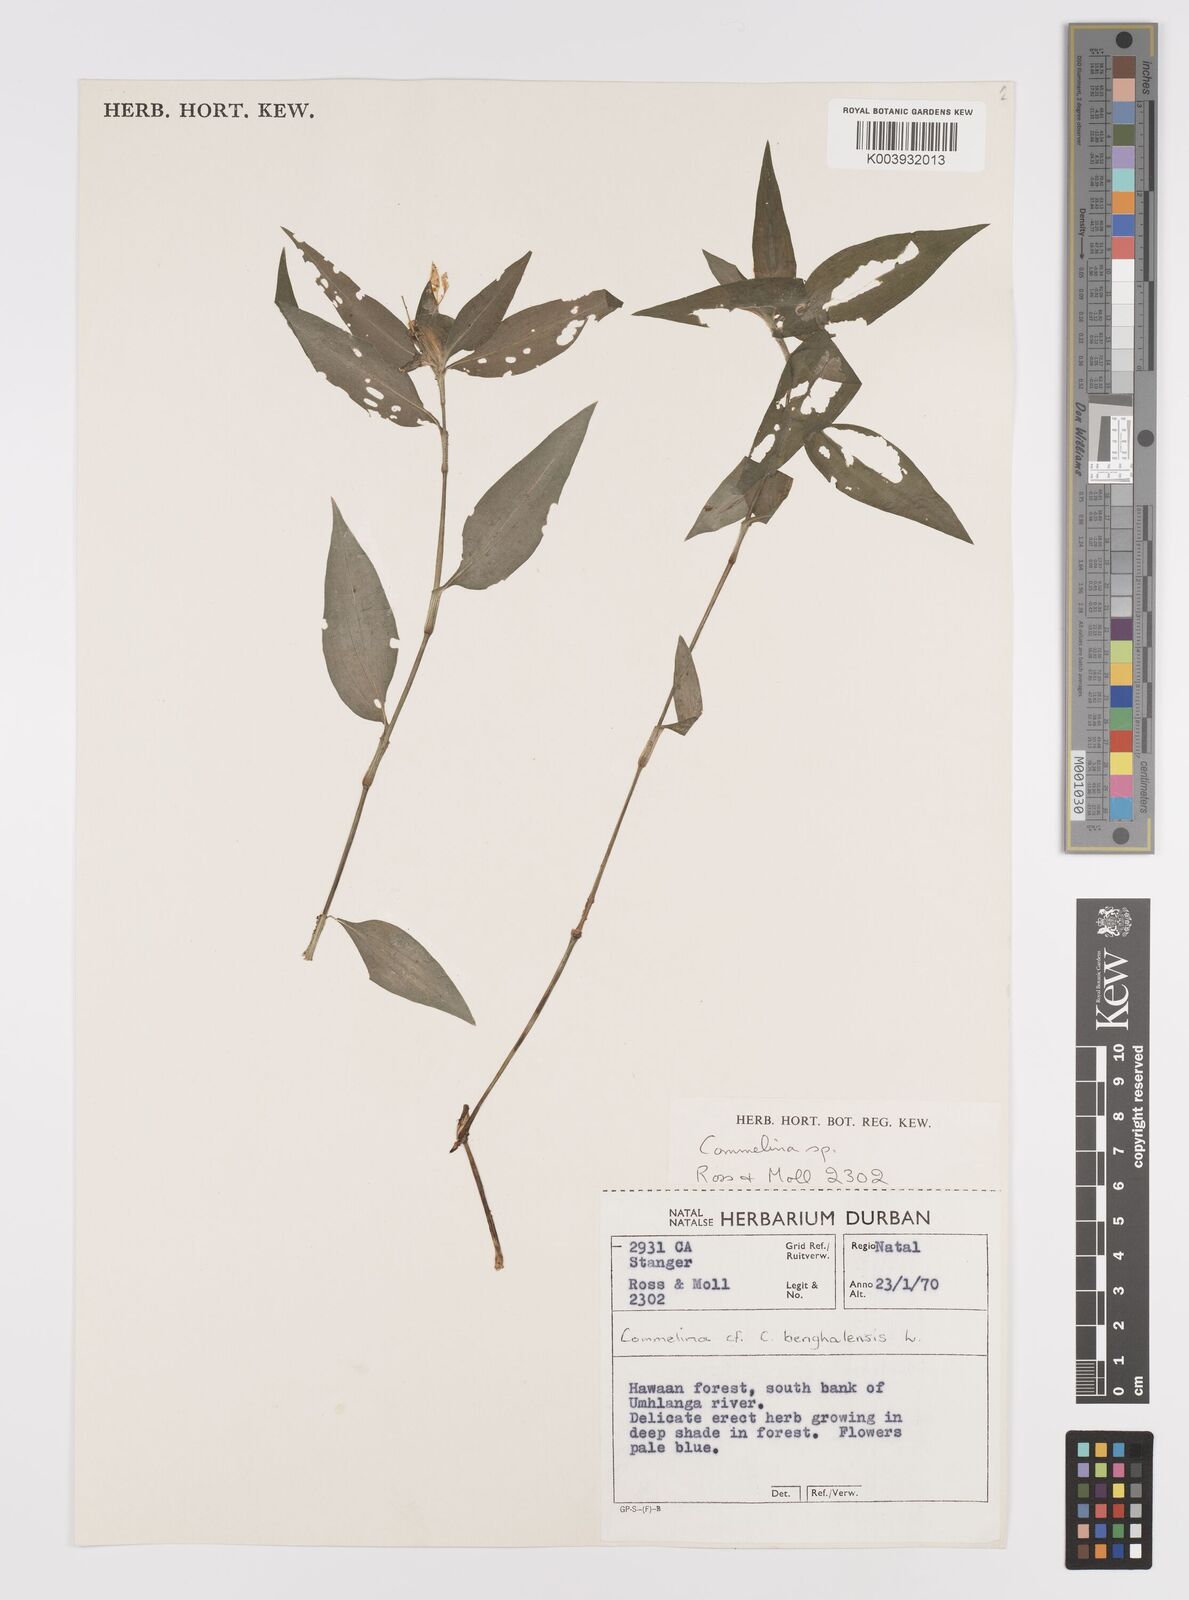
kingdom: Plantae
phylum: Tracheophyta
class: Liliopsida
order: Commelinales
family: Commelinaceae
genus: Commelina
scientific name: Commelina
